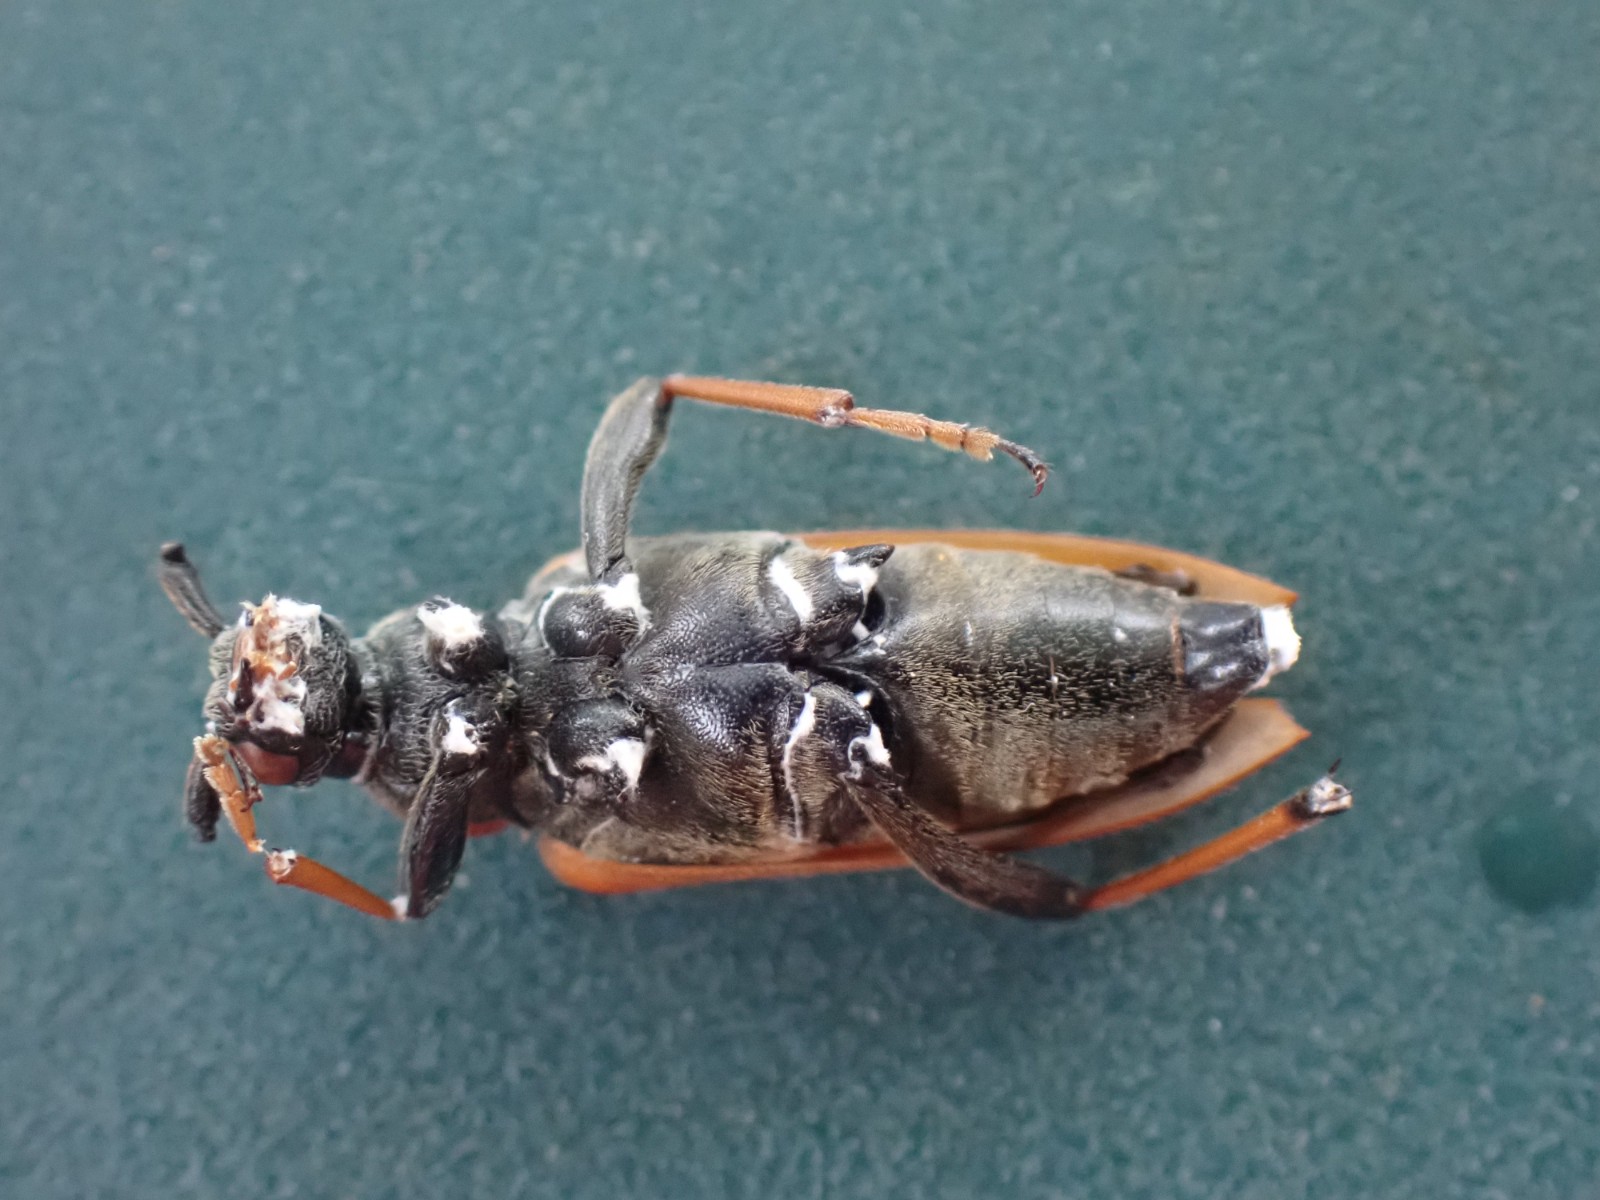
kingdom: Fungi
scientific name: Fungi
